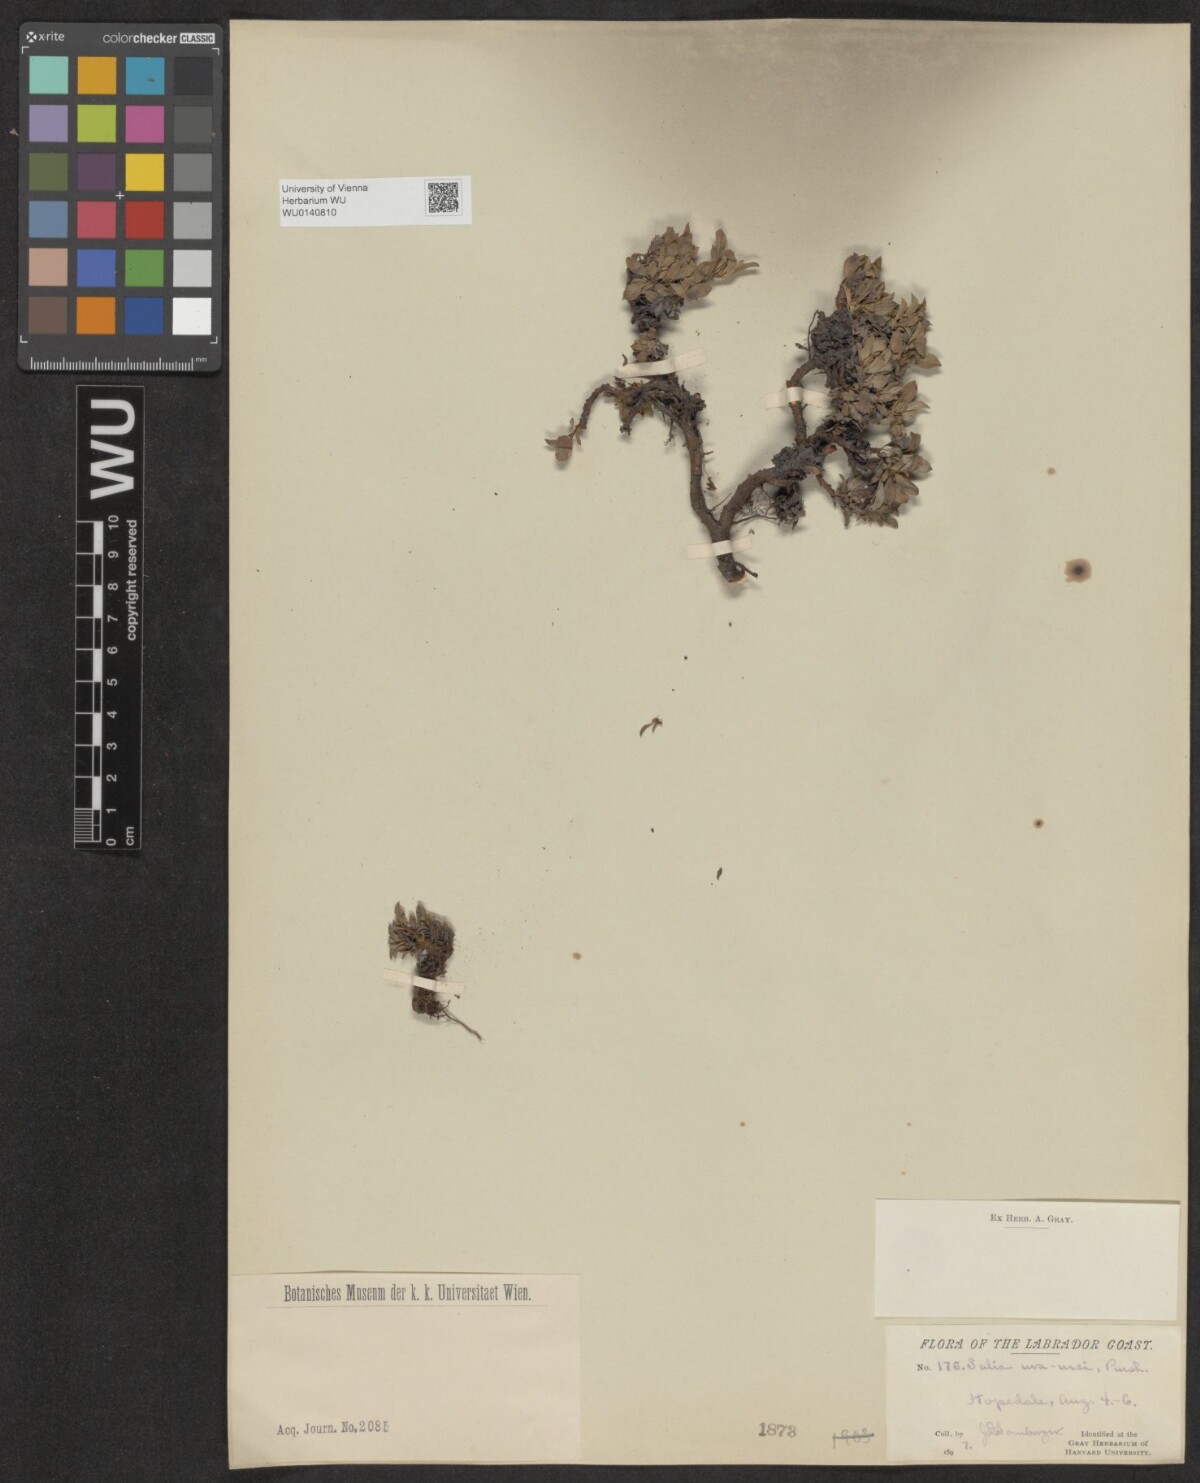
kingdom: Plantae
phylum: Tracheophyta
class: Magnoliopsida
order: Malpighiales
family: Salicaceae
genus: Salix
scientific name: Salix uva-ursi
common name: Bearberry willow
